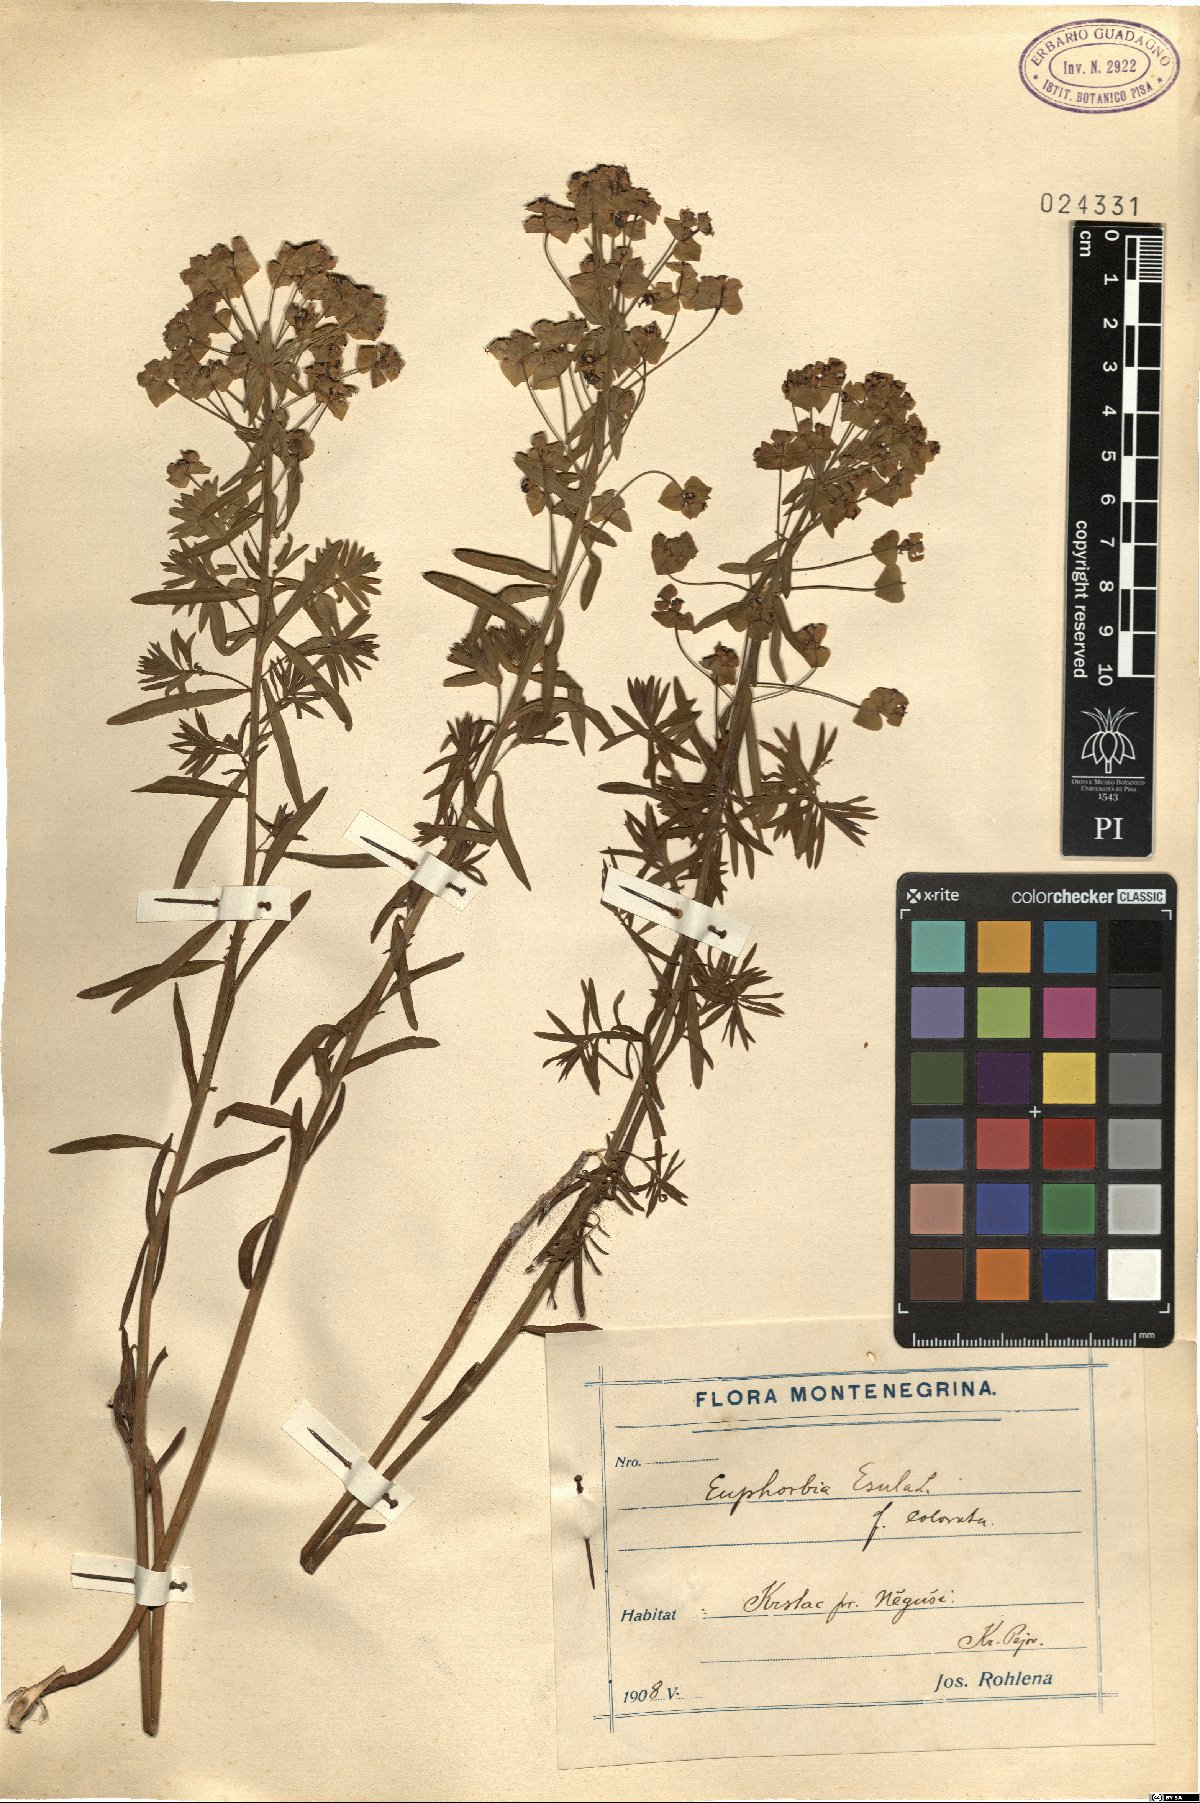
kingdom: Plantae
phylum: Tracheophyta
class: Magnoliopsida
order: Malpighiales
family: Euphorbiaceae
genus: Euphorbia
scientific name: Euphorbia esula
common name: Leafy spurge
